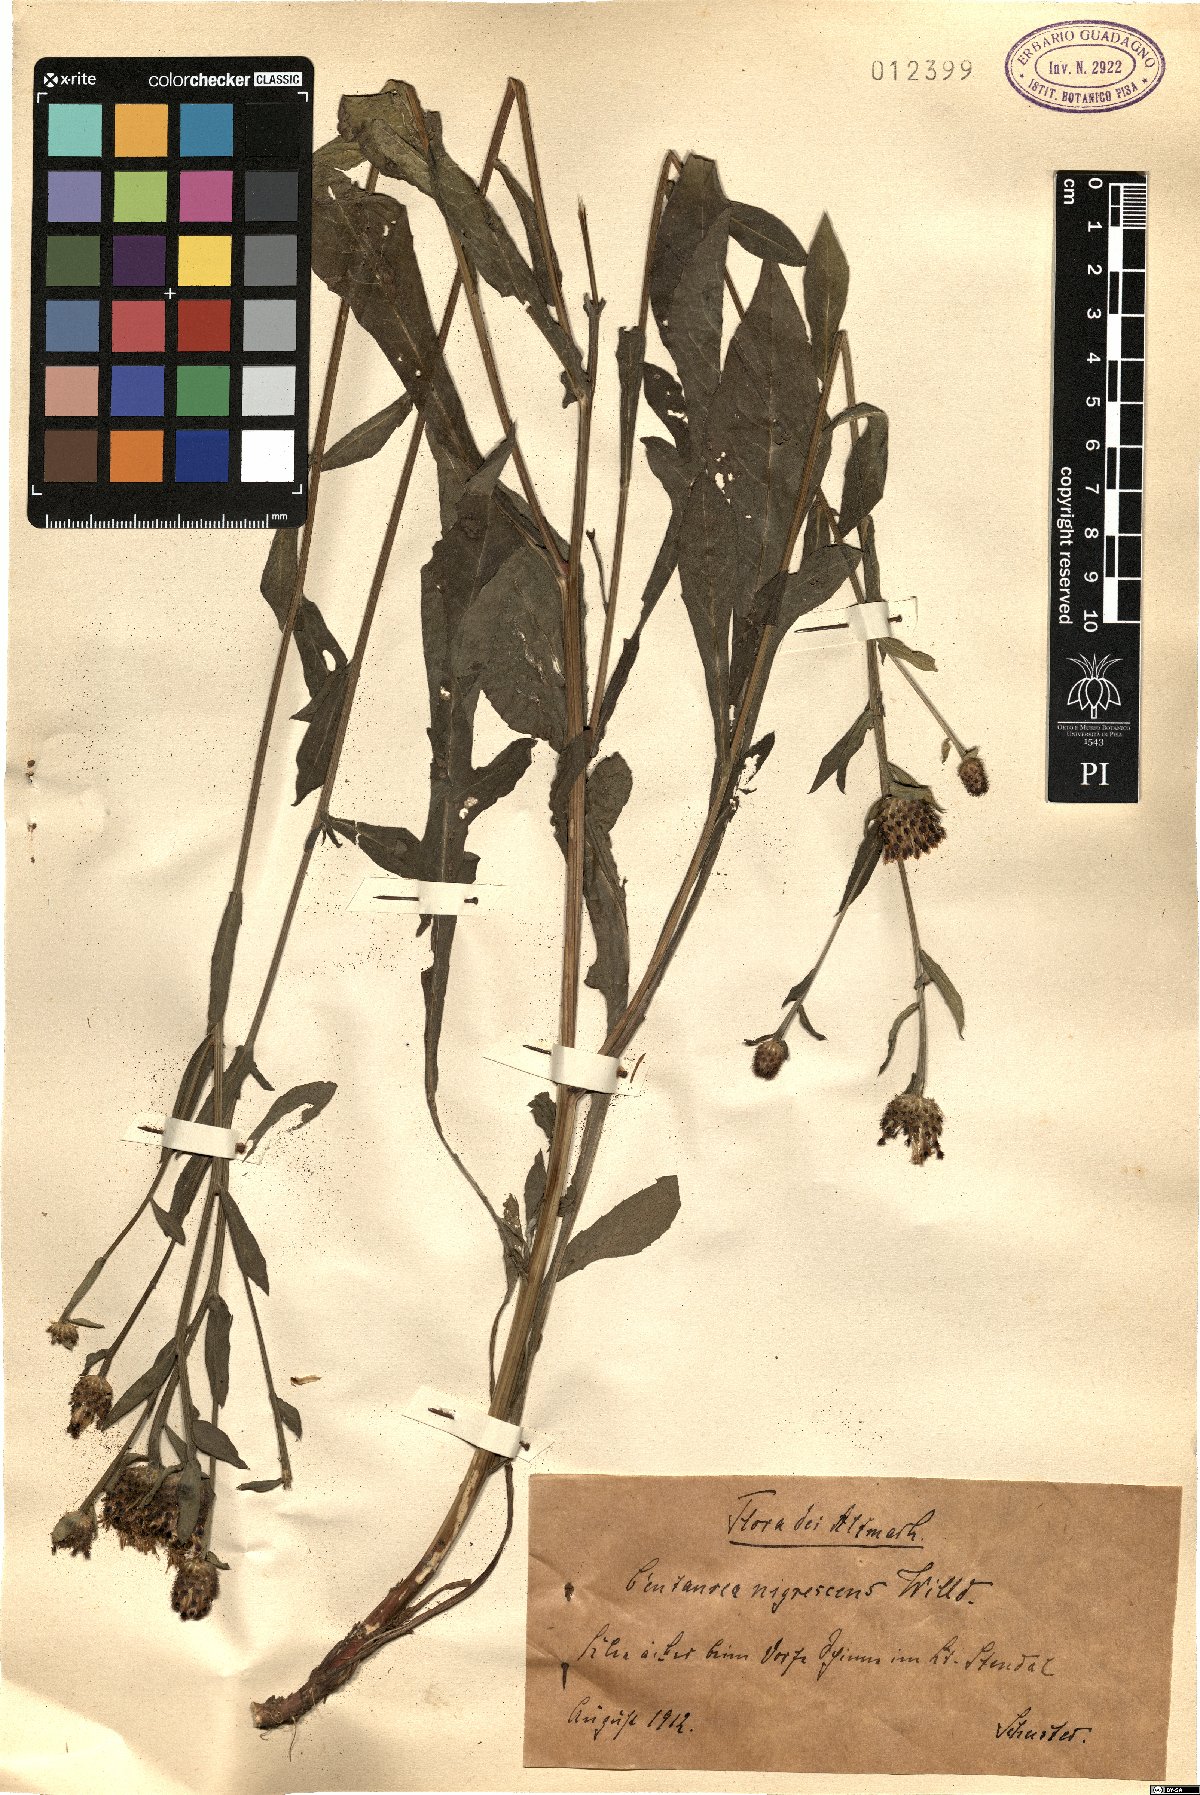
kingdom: Plantae
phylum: Tracheophyta
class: Magnoliopsida
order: Asterales
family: Asteraceae
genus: Centaurea
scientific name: Centaurea nigrescens
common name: Tyrol knapweed
